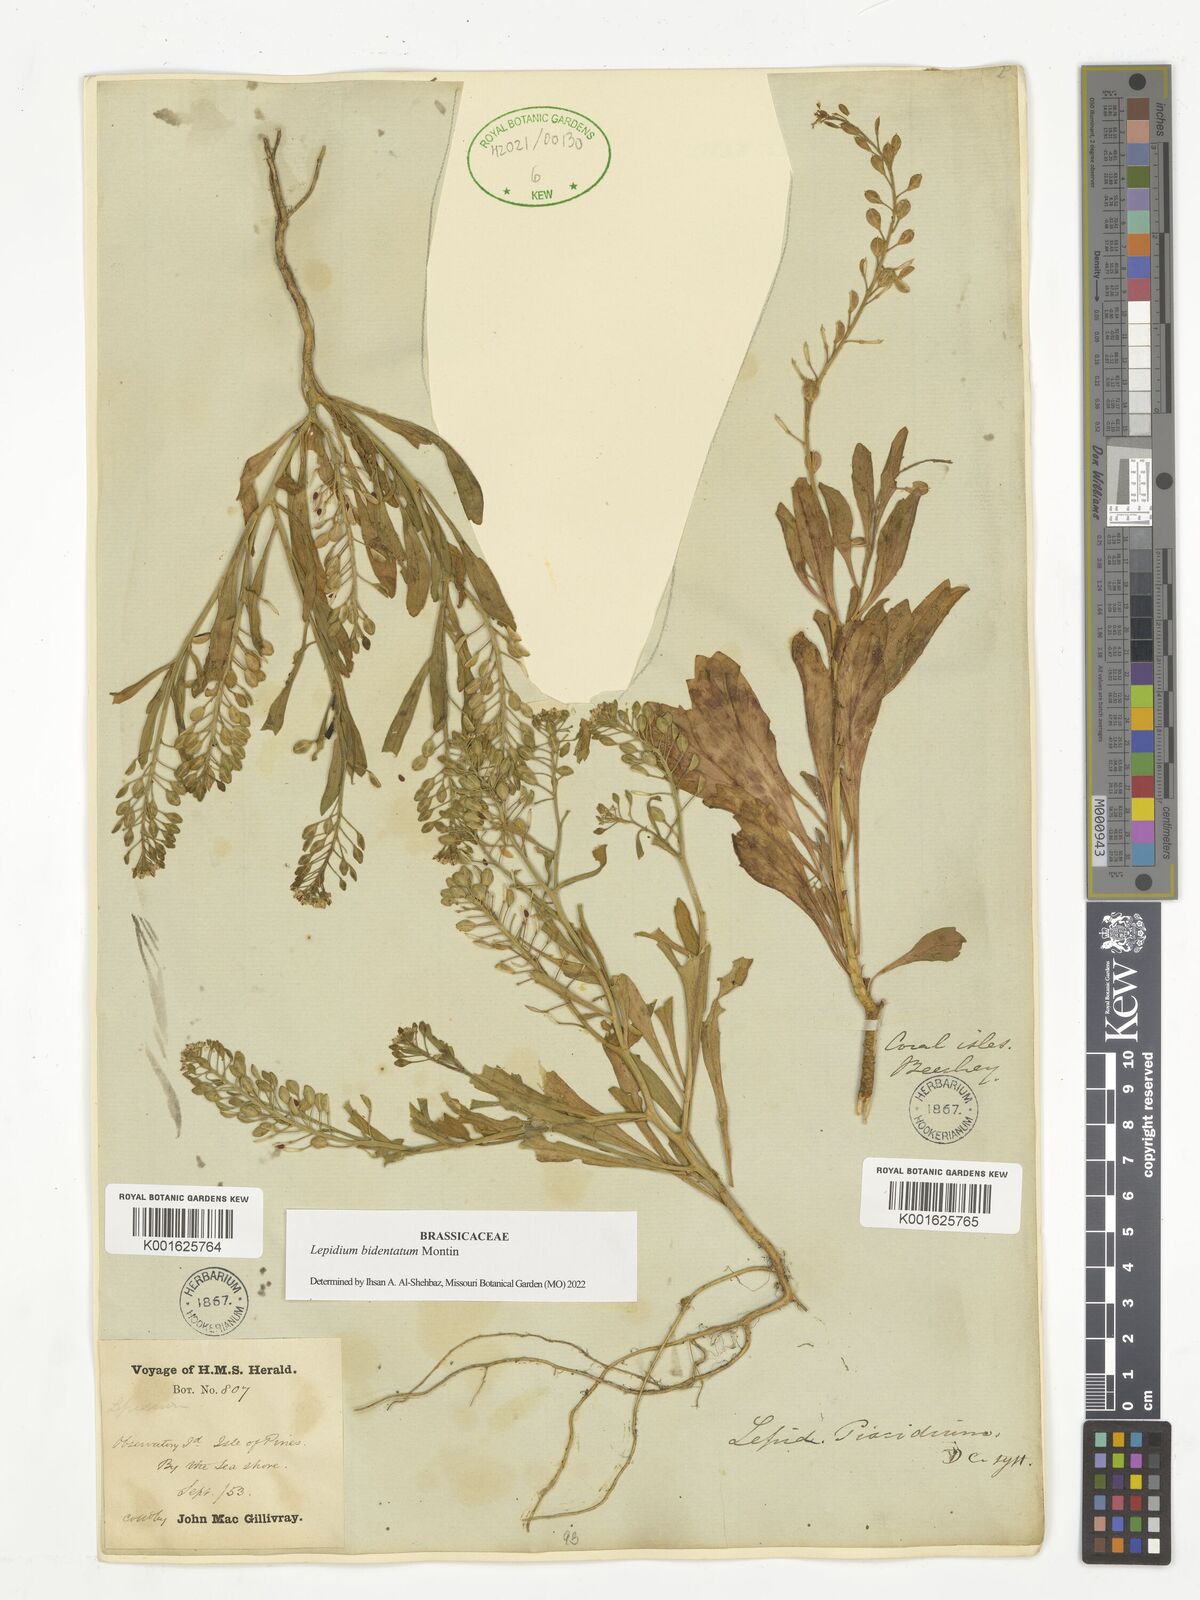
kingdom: Plantae
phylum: Tracheophyta
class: Magnoliopsida
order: Brassicales
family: Brassicaceae
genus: Lepidium
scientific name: Lepidium bidentatum
